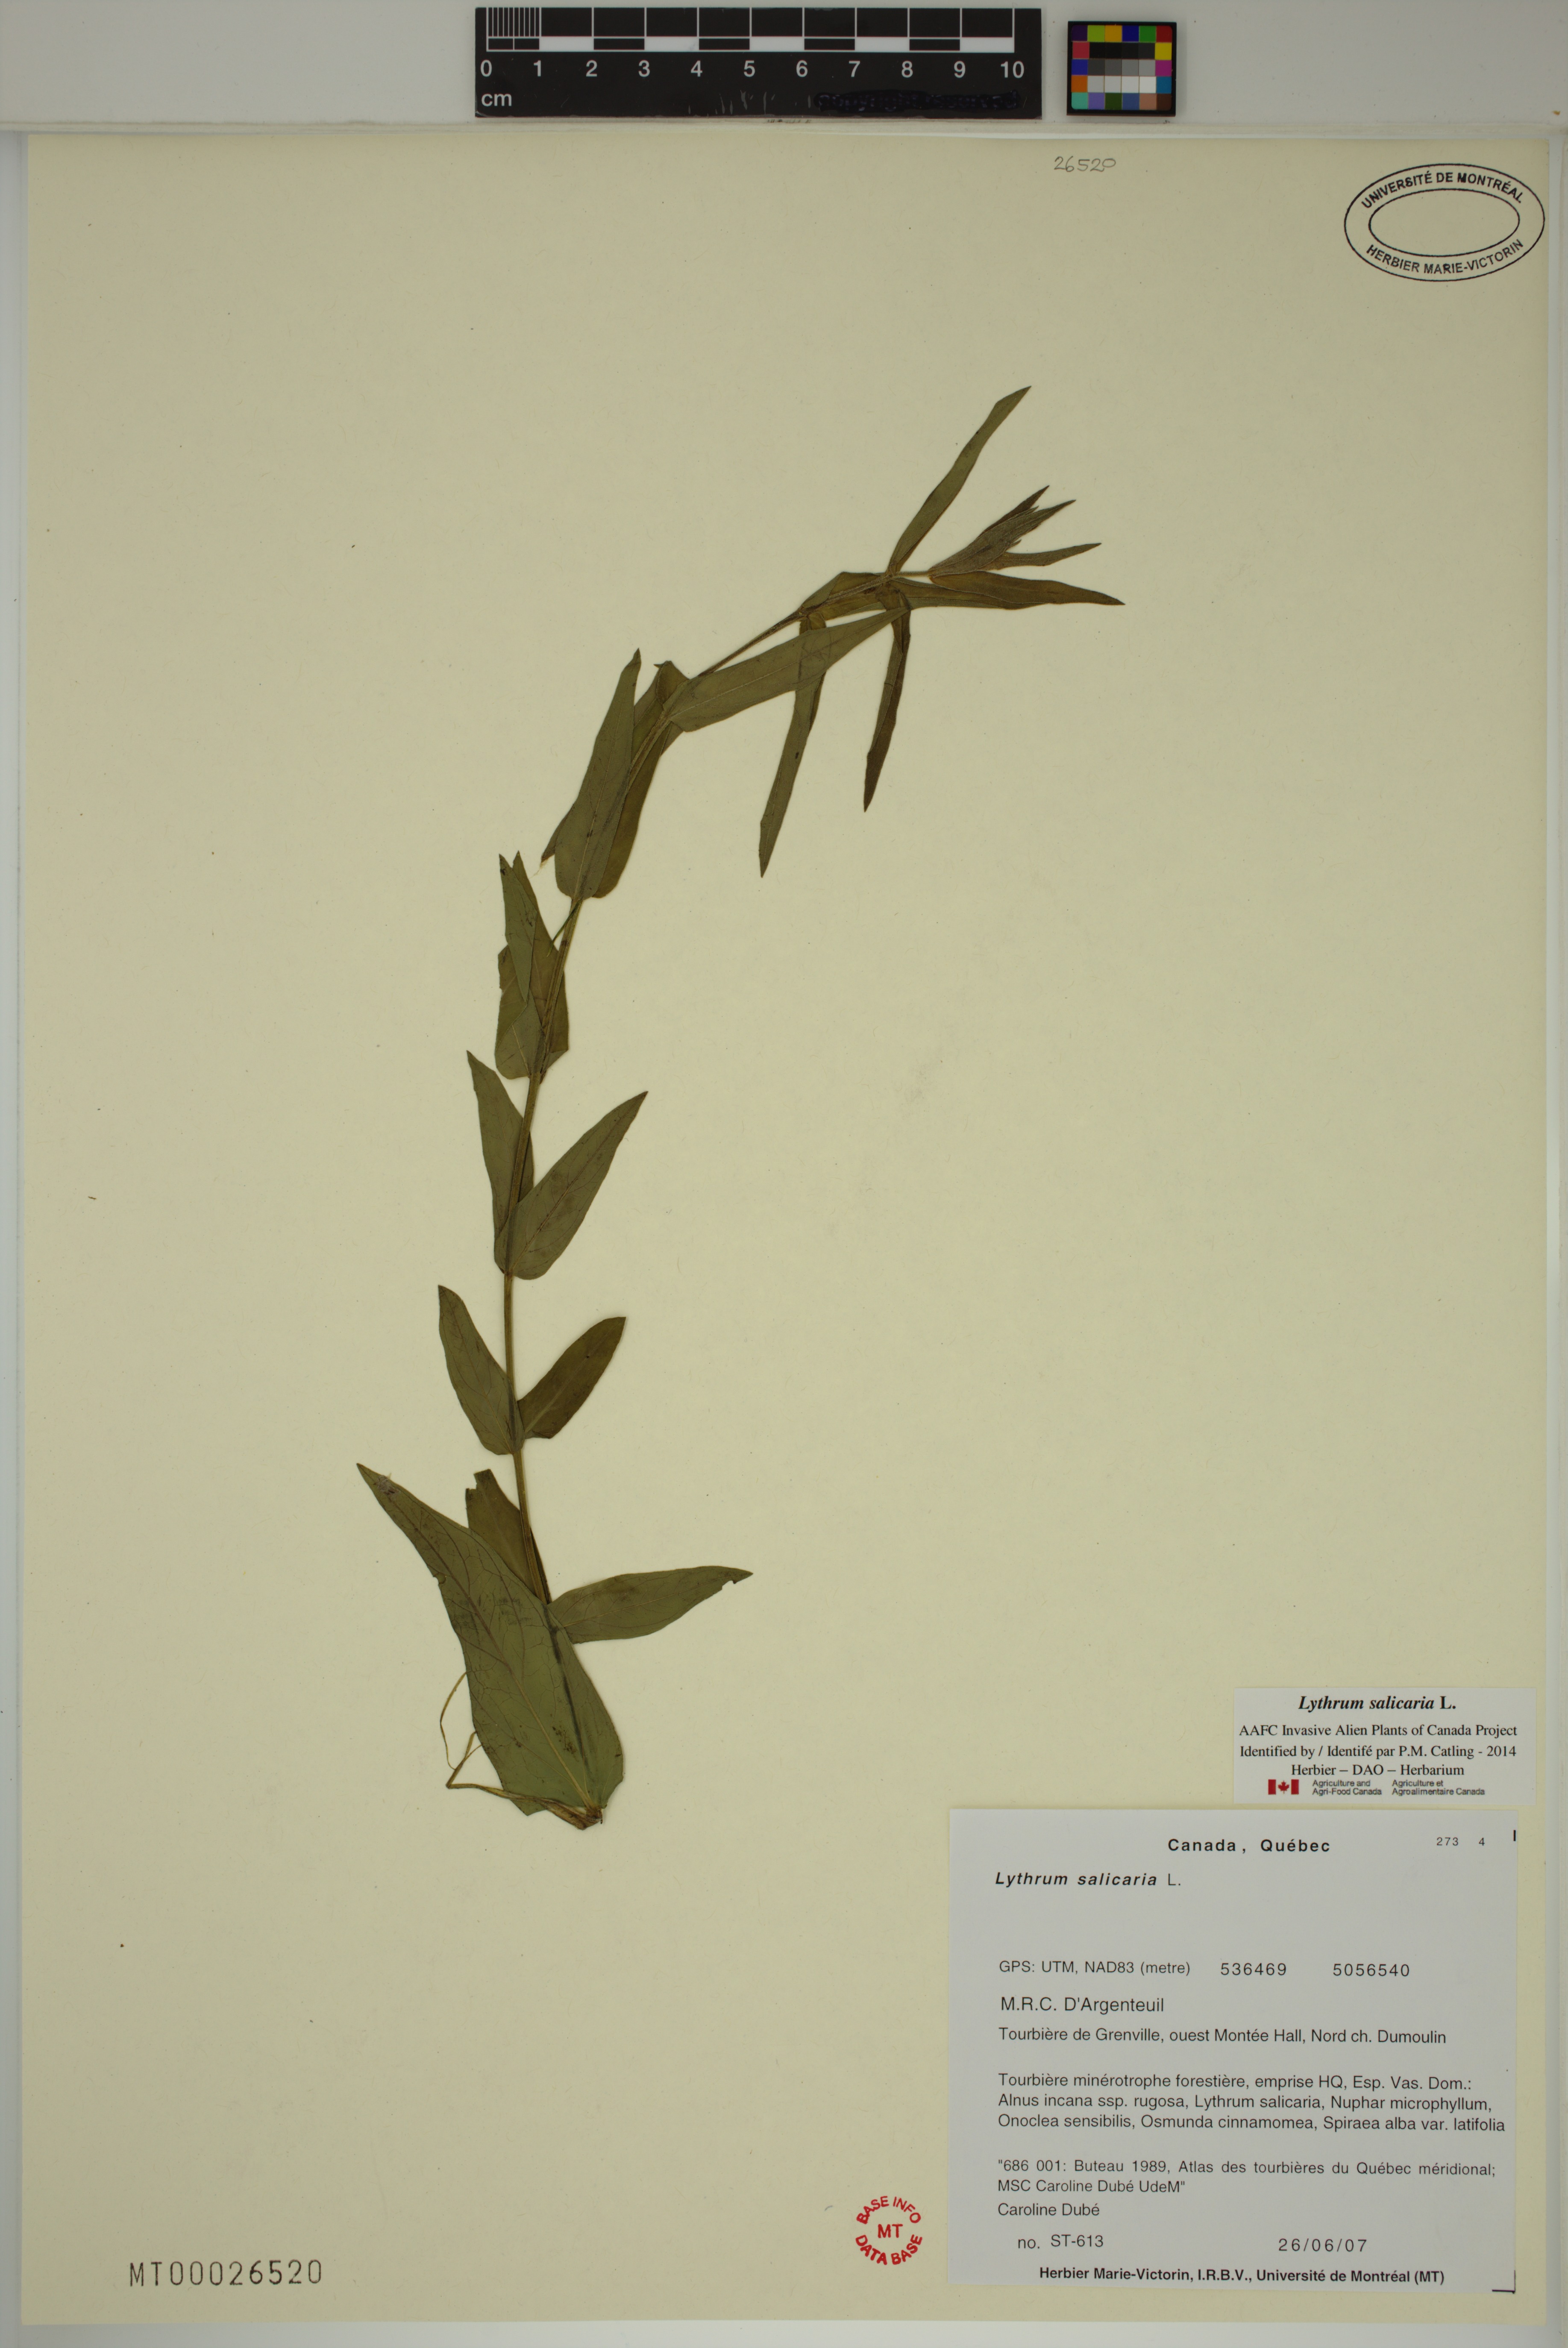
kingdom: Plantae
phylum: Tracheophyta
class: Magnoliopsida
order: Myrtales
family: Lythraceae
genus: Lythrum
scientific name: Lythrum salicaria
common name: Purple loosestrife
